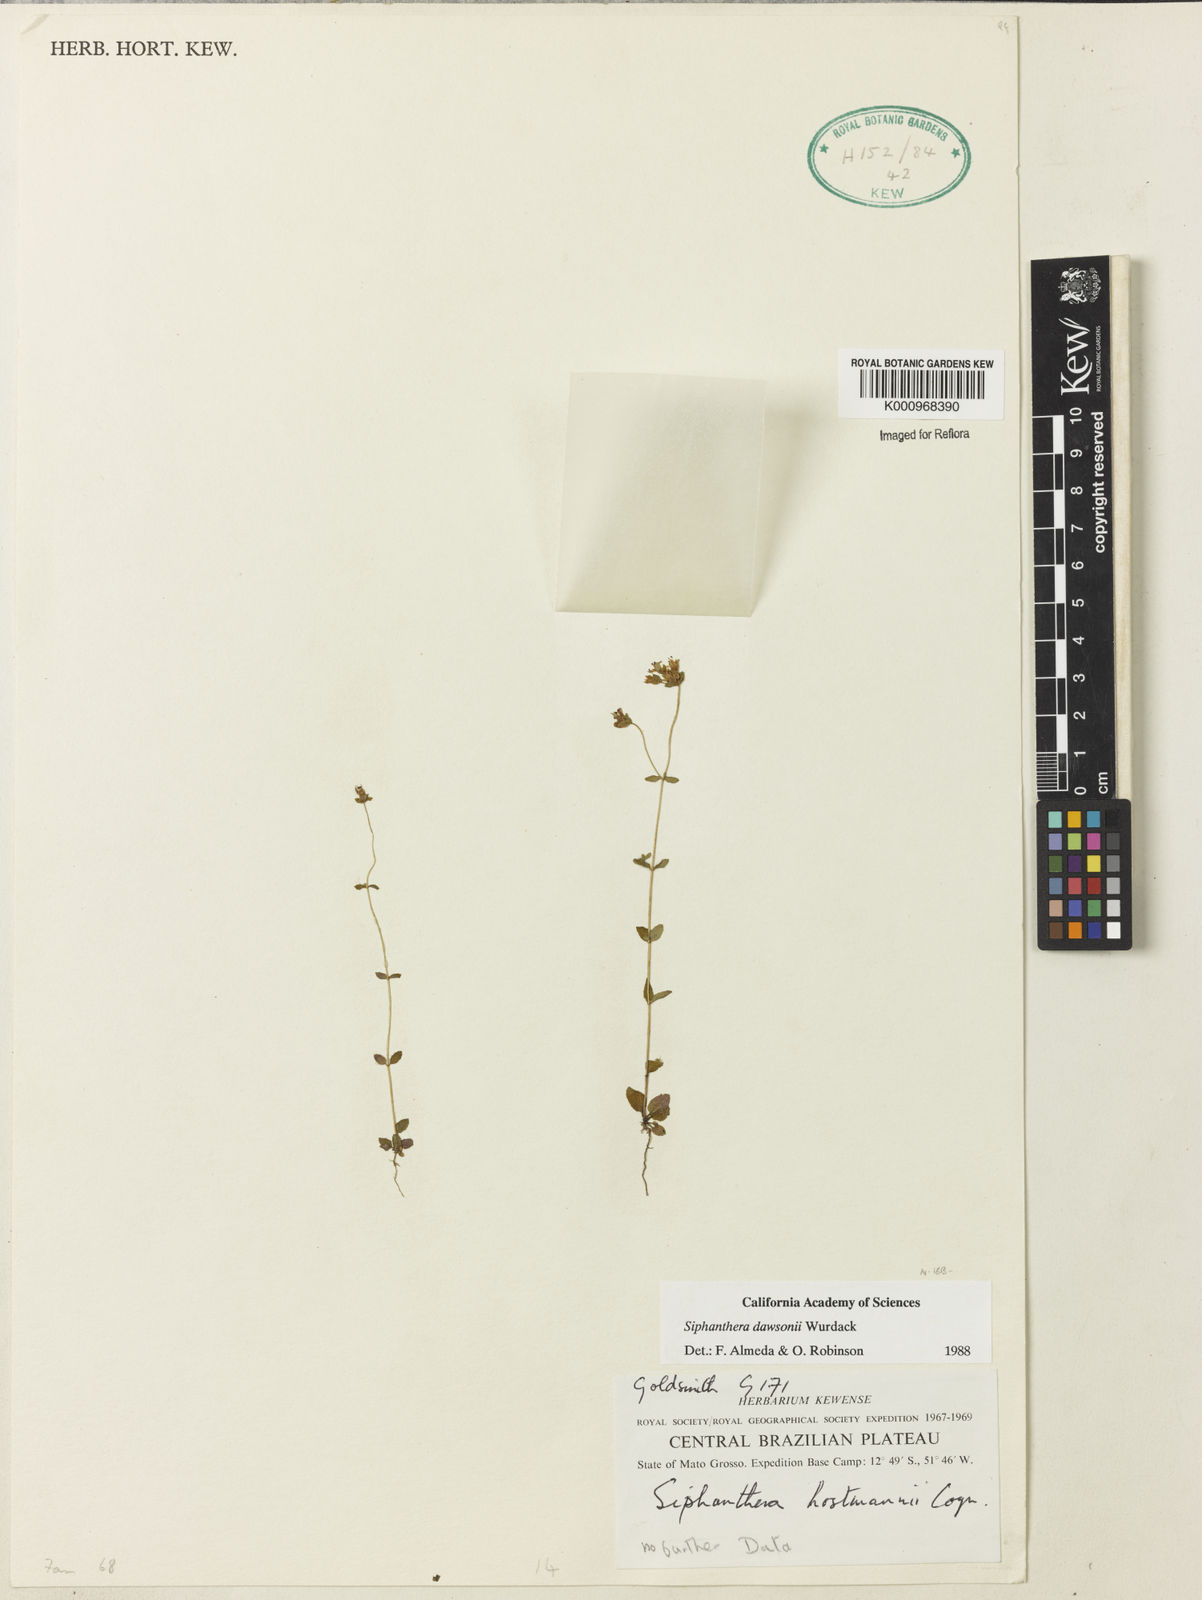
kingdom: Plantae
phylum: Tracheophyta
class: Magnoliopsida
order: Myrtales
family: Melastomataceae
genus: Siphanthera
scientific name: Siphanthera dawsonii
